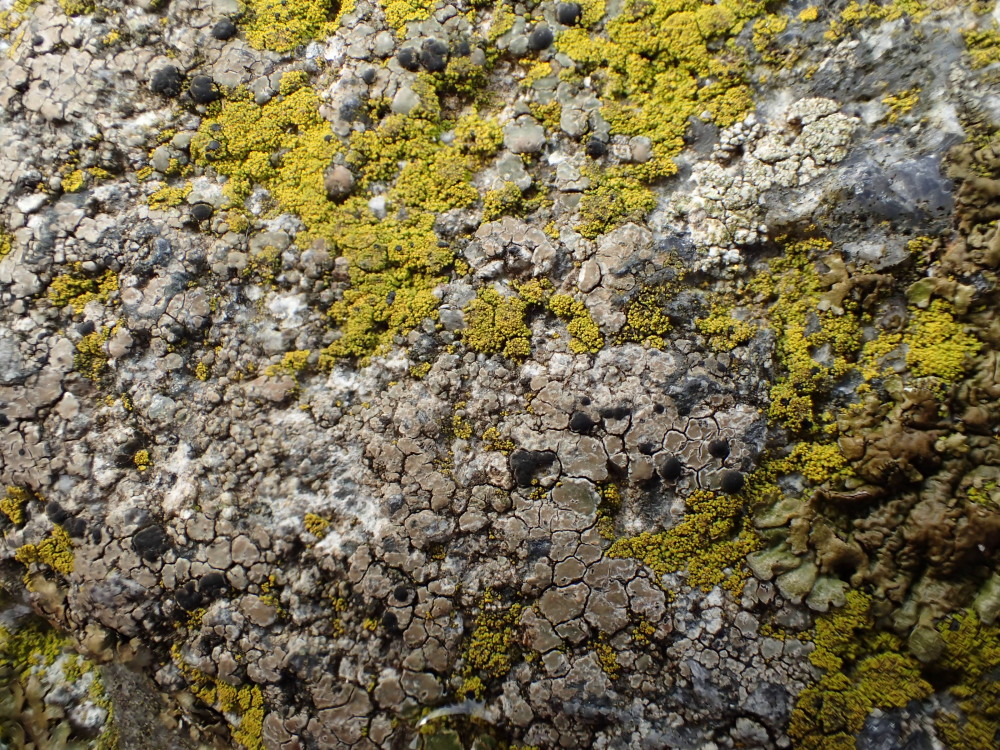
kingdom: Fungi
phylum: Ascomycota
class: Lecanoromycetes
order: Lecideales
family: Lecideaceae
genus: Lecidea
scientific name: Lecidea fuscoatra
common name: rudret skivelav
